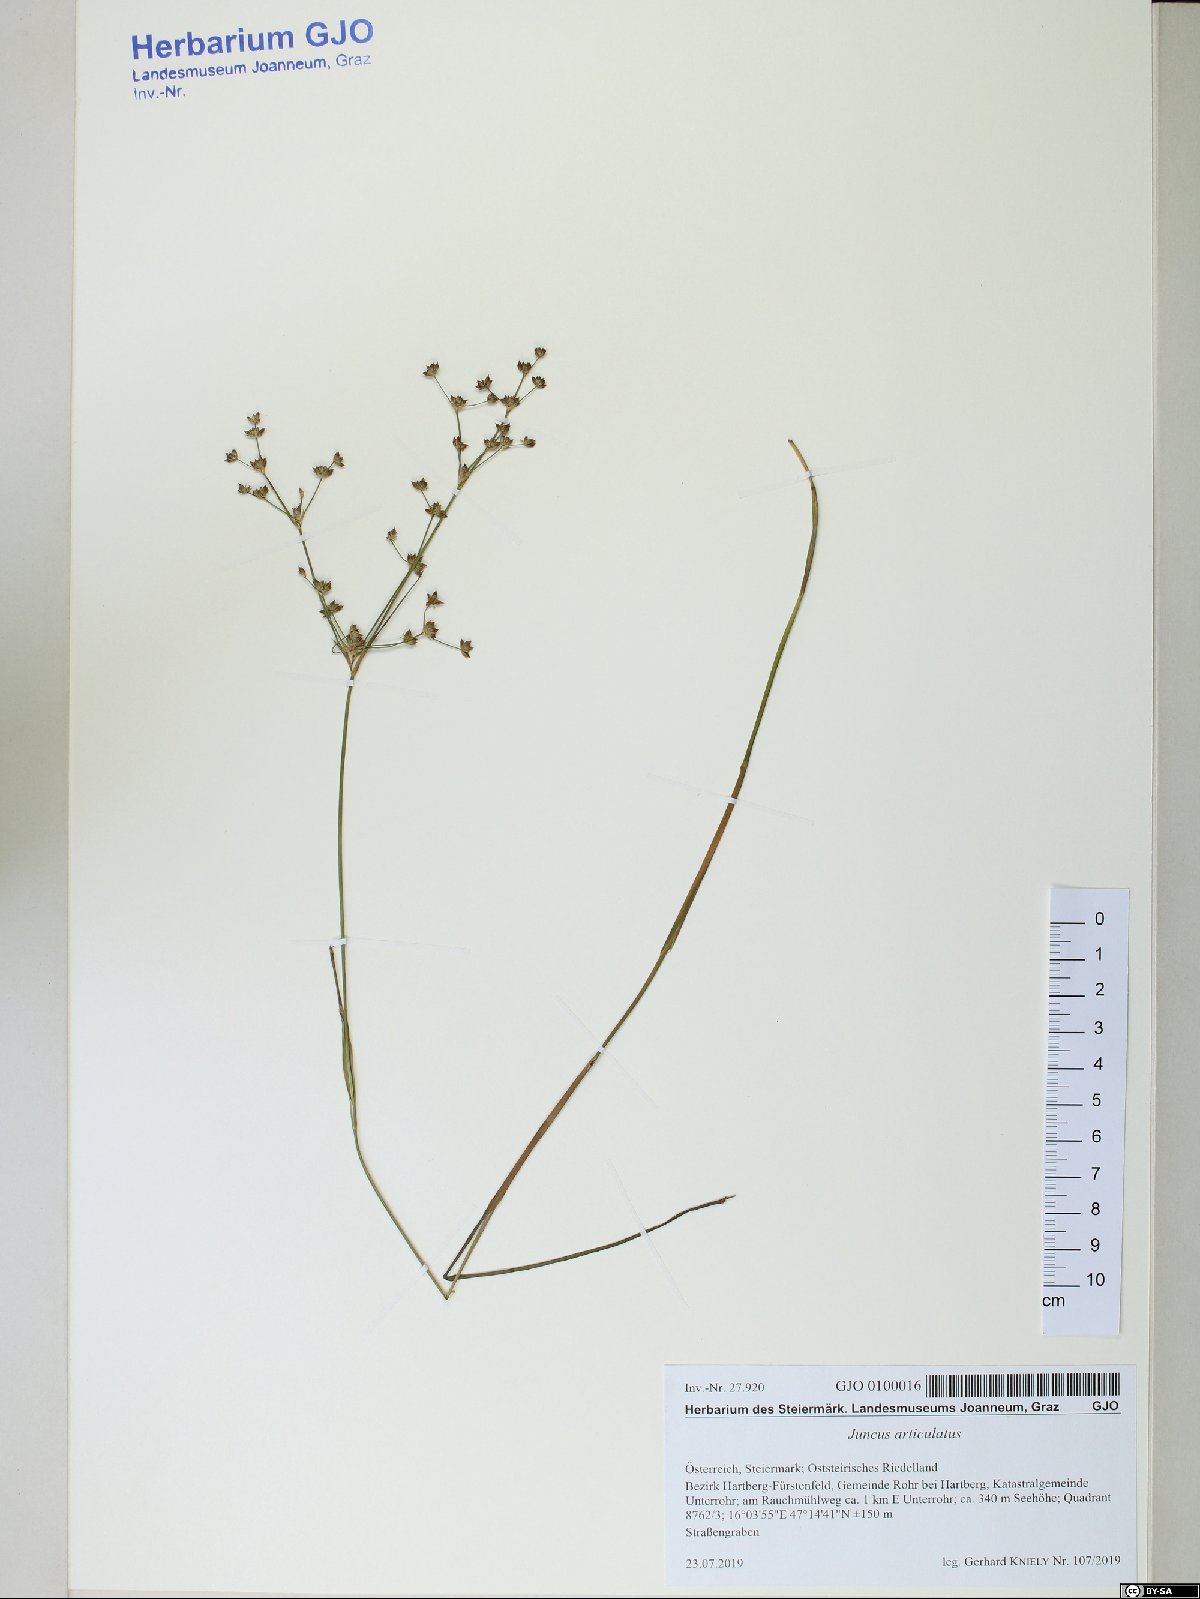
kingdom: Plantae
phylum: Tracheophyta
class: Liliopsida
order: Poales
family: Juncaceae
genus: Juncus
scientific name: Juncus articulatus
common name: Jointed rush
